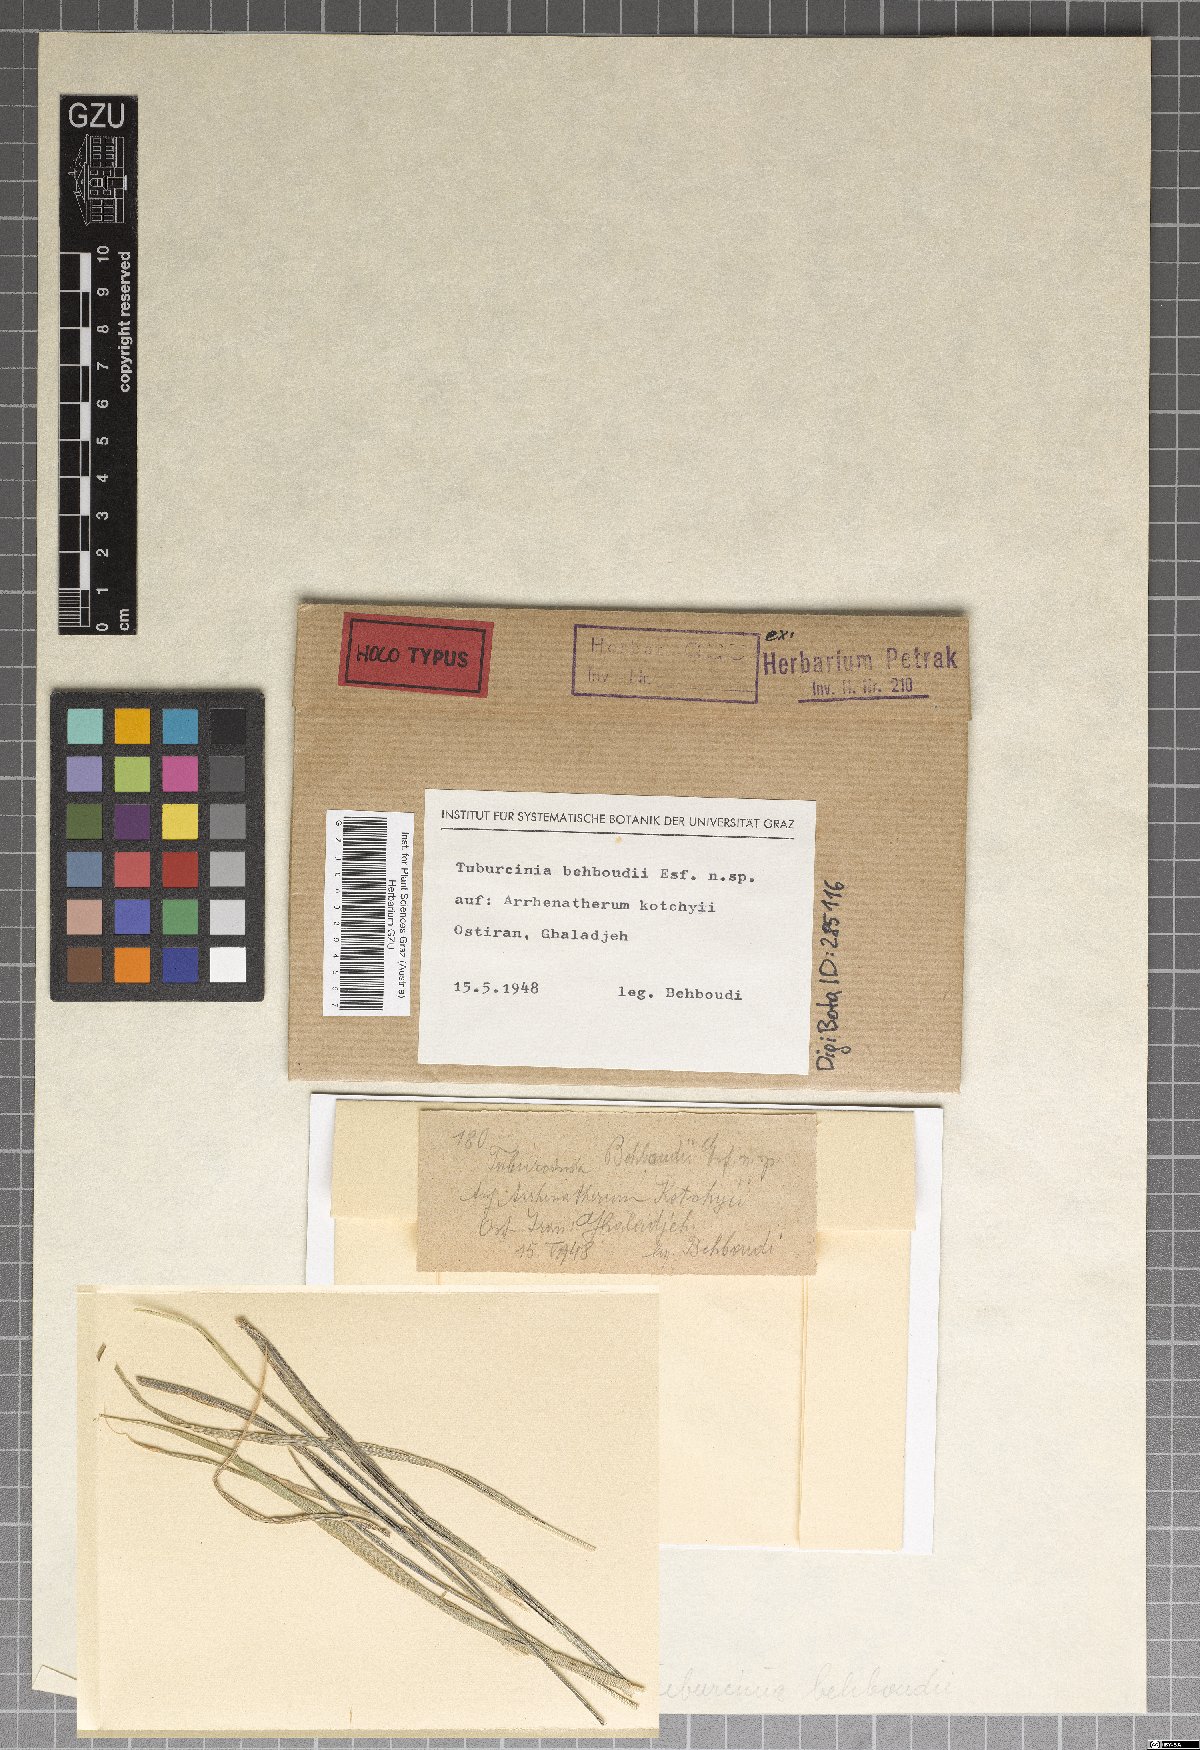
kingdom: Fungi
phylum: Basidiomycota
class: Ustilaginomycetes
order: Urocystidales
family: Urocystidaceae
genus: Urocystis
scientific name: Urocystis behboudii
